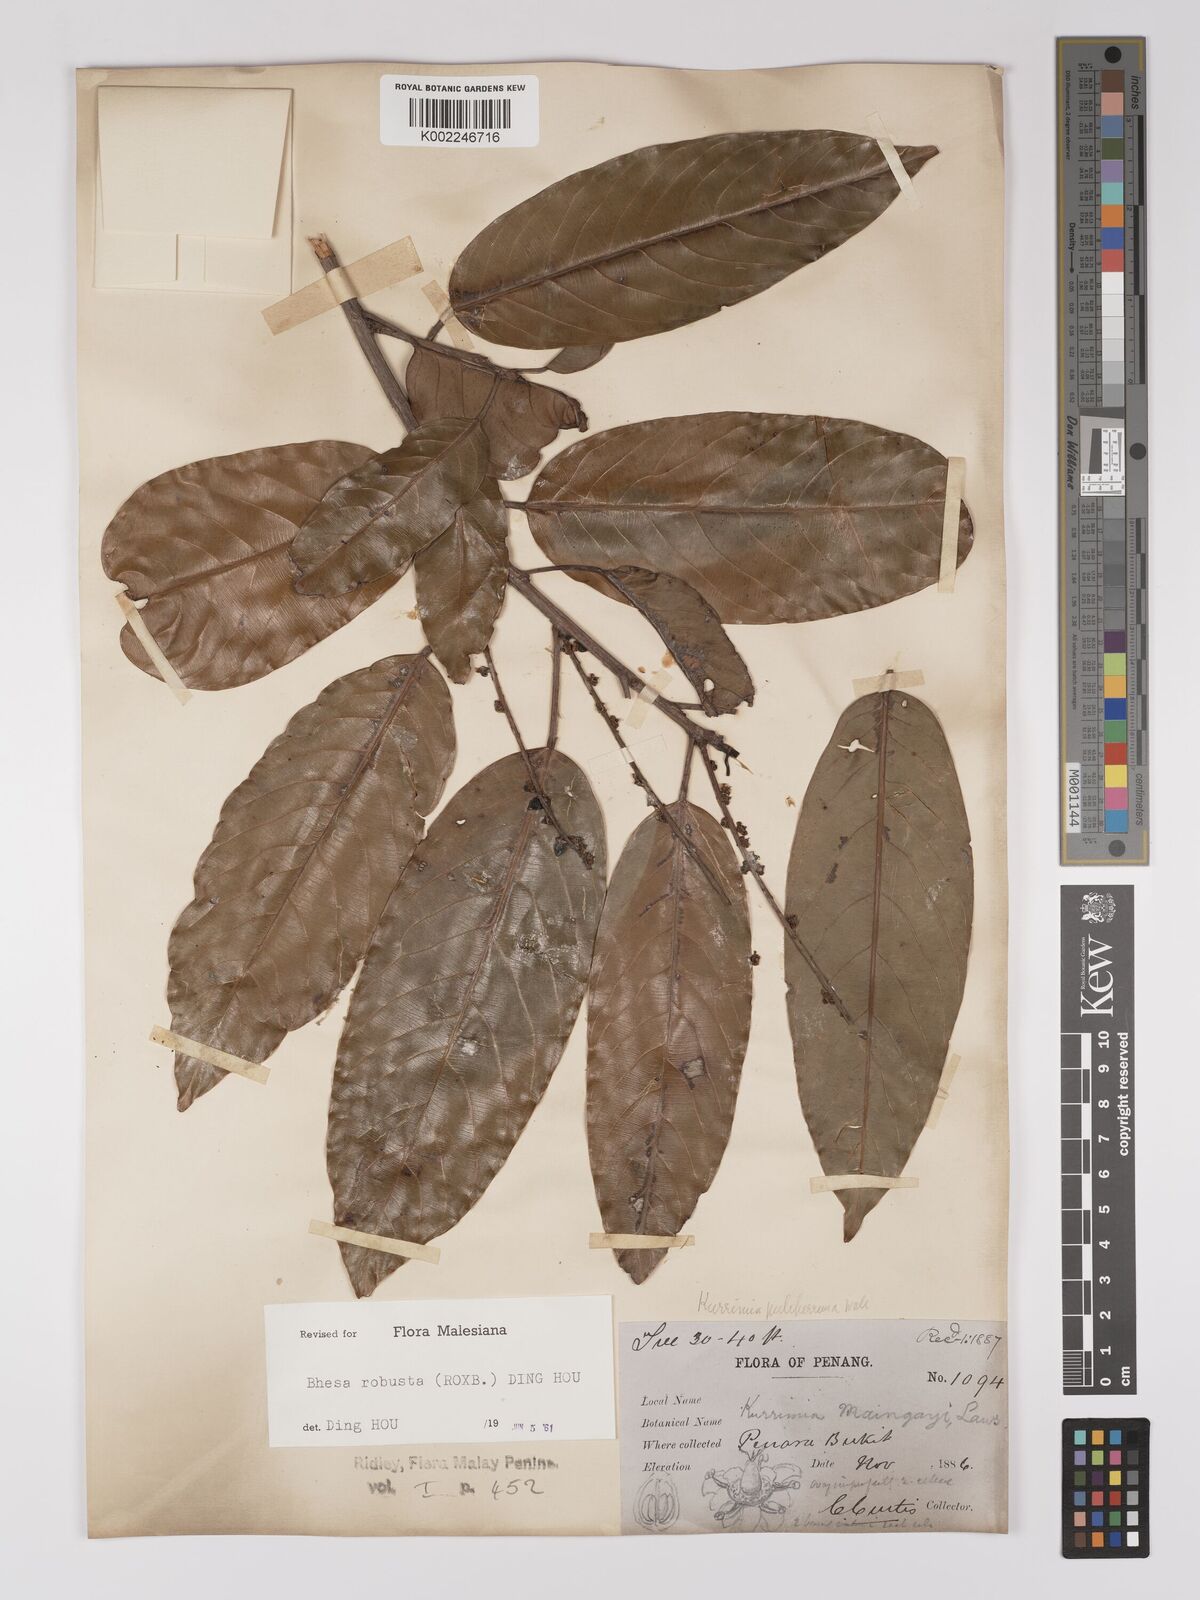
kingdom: Plantae
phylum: Tracheophyta
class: Magnoliopsida
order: Malpighiales
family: Centroplacaceae
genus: Bhesa
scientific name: Bhesa robusta
